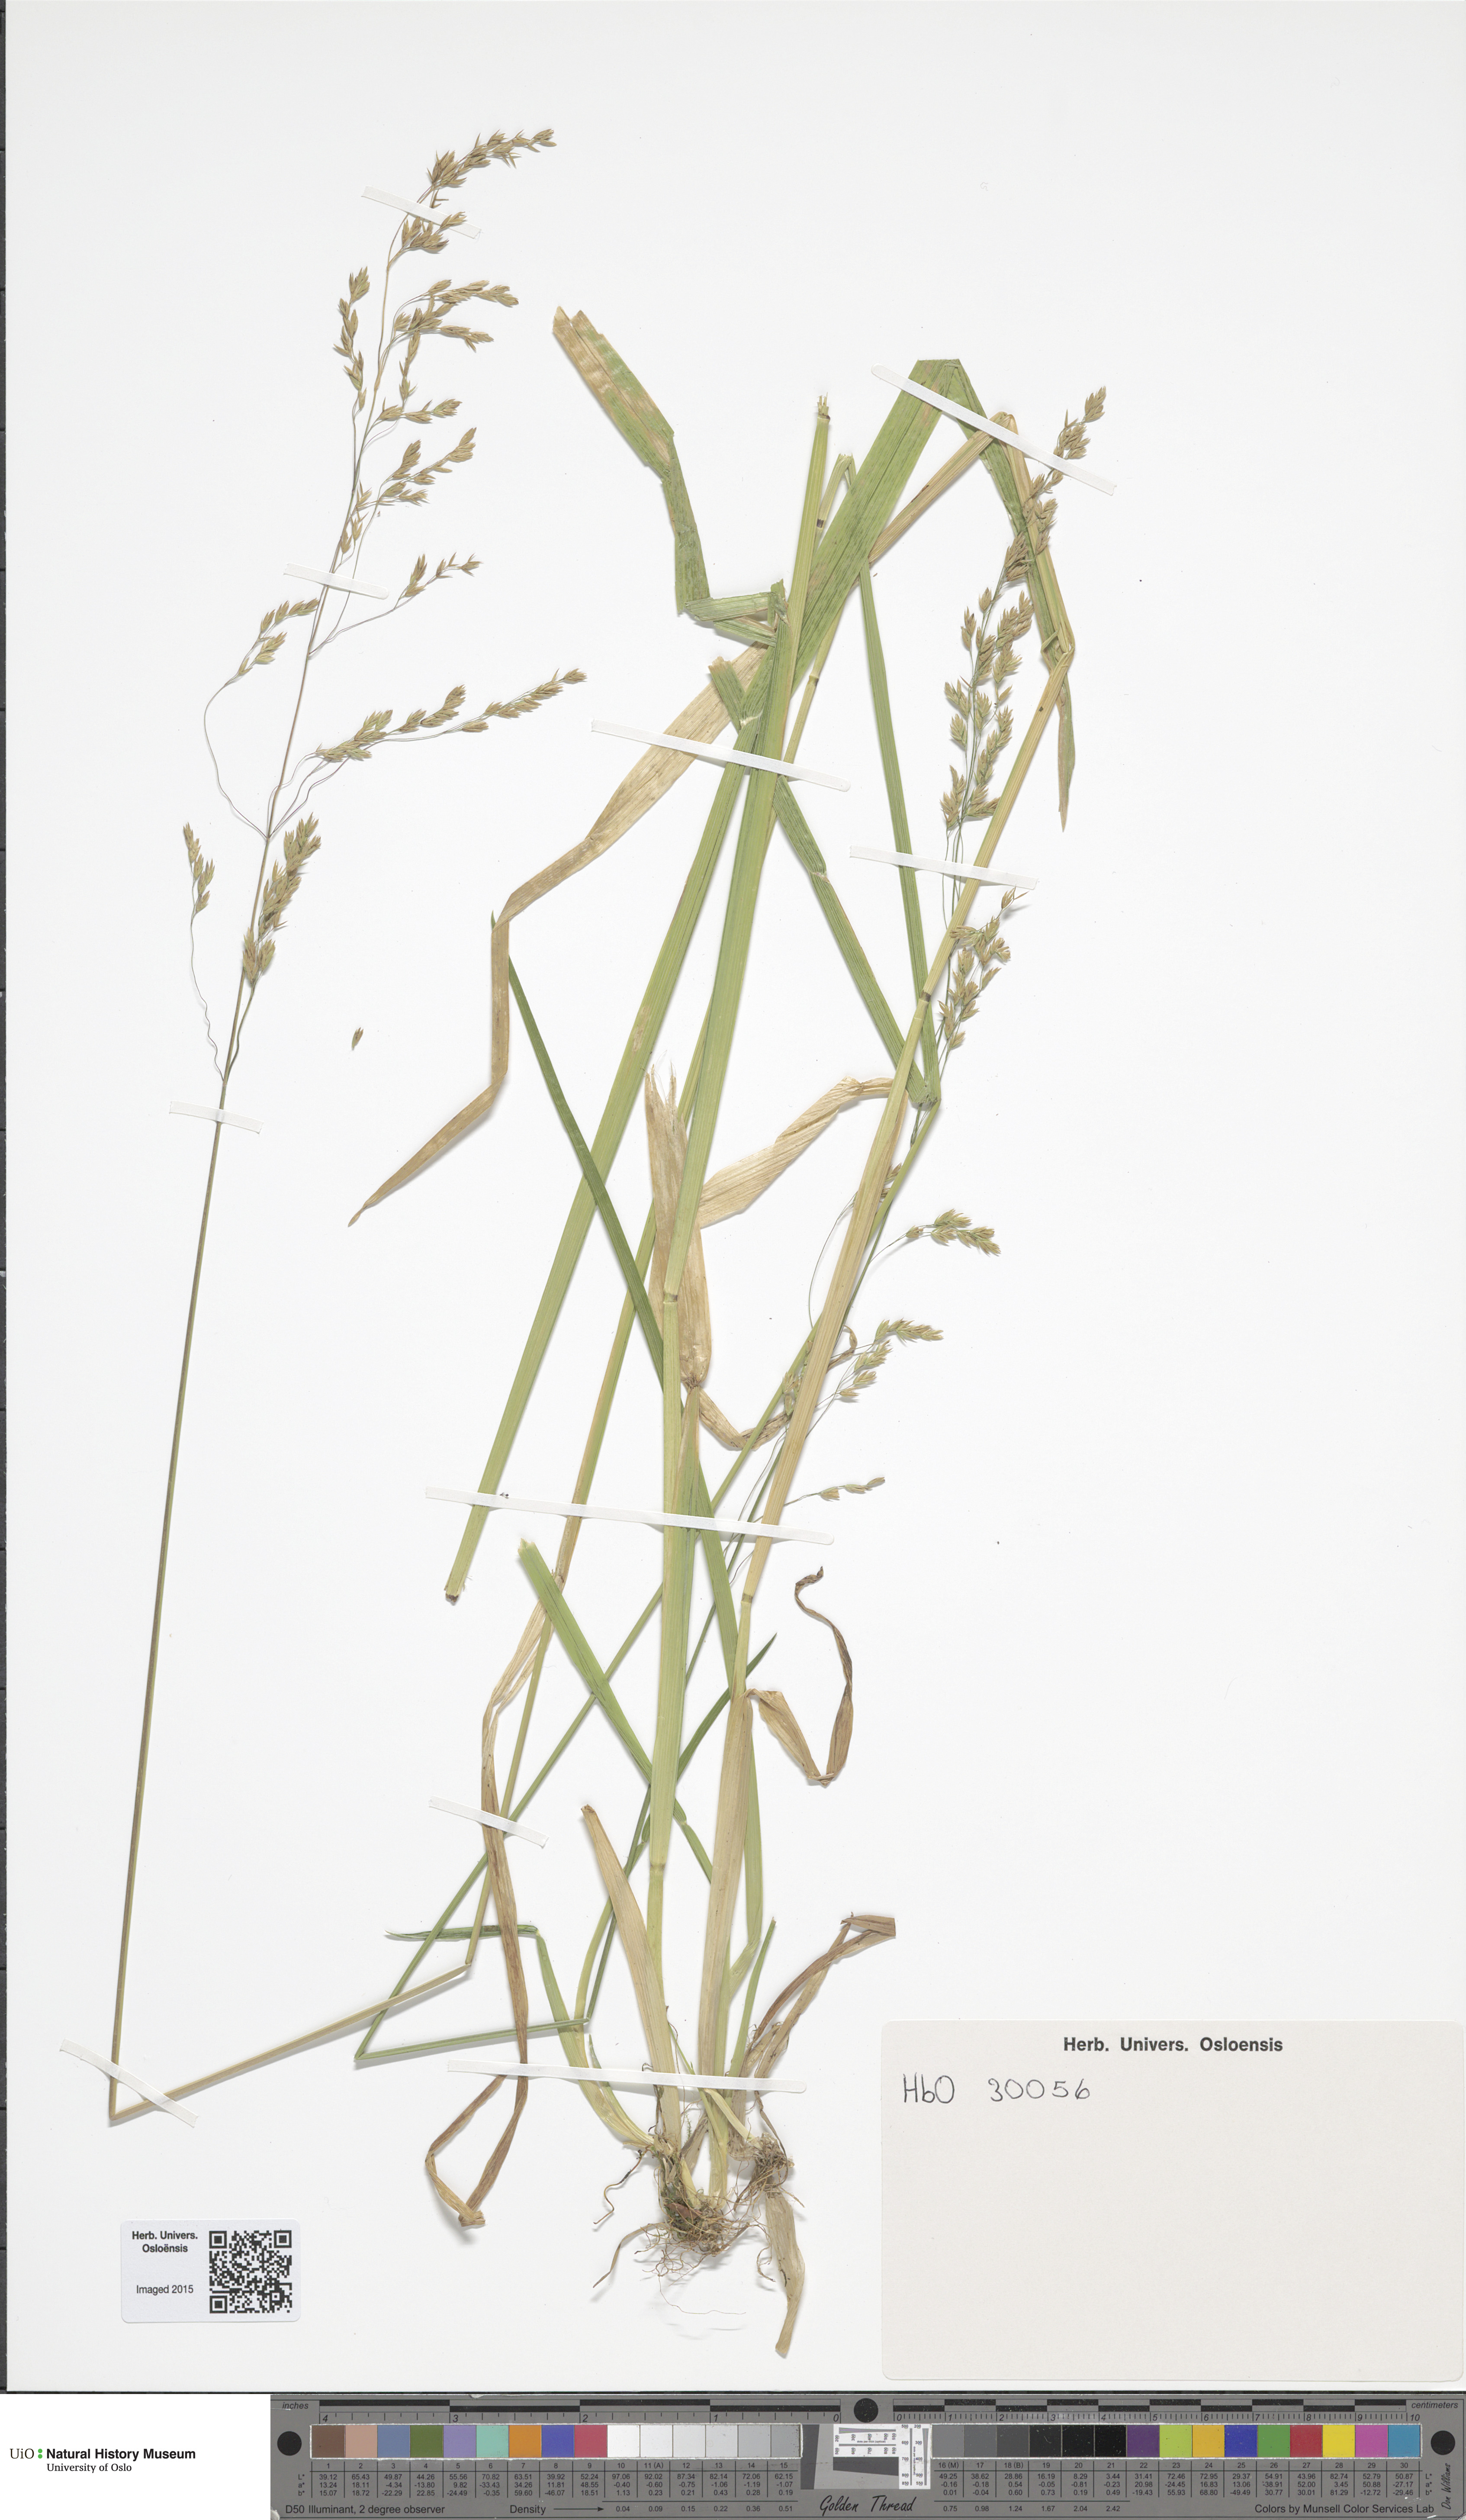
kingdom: Plantae
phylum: Tracheophyta
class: Liliopsida
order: Poales
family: Poaceae
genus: Poa
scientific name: Poa remota
